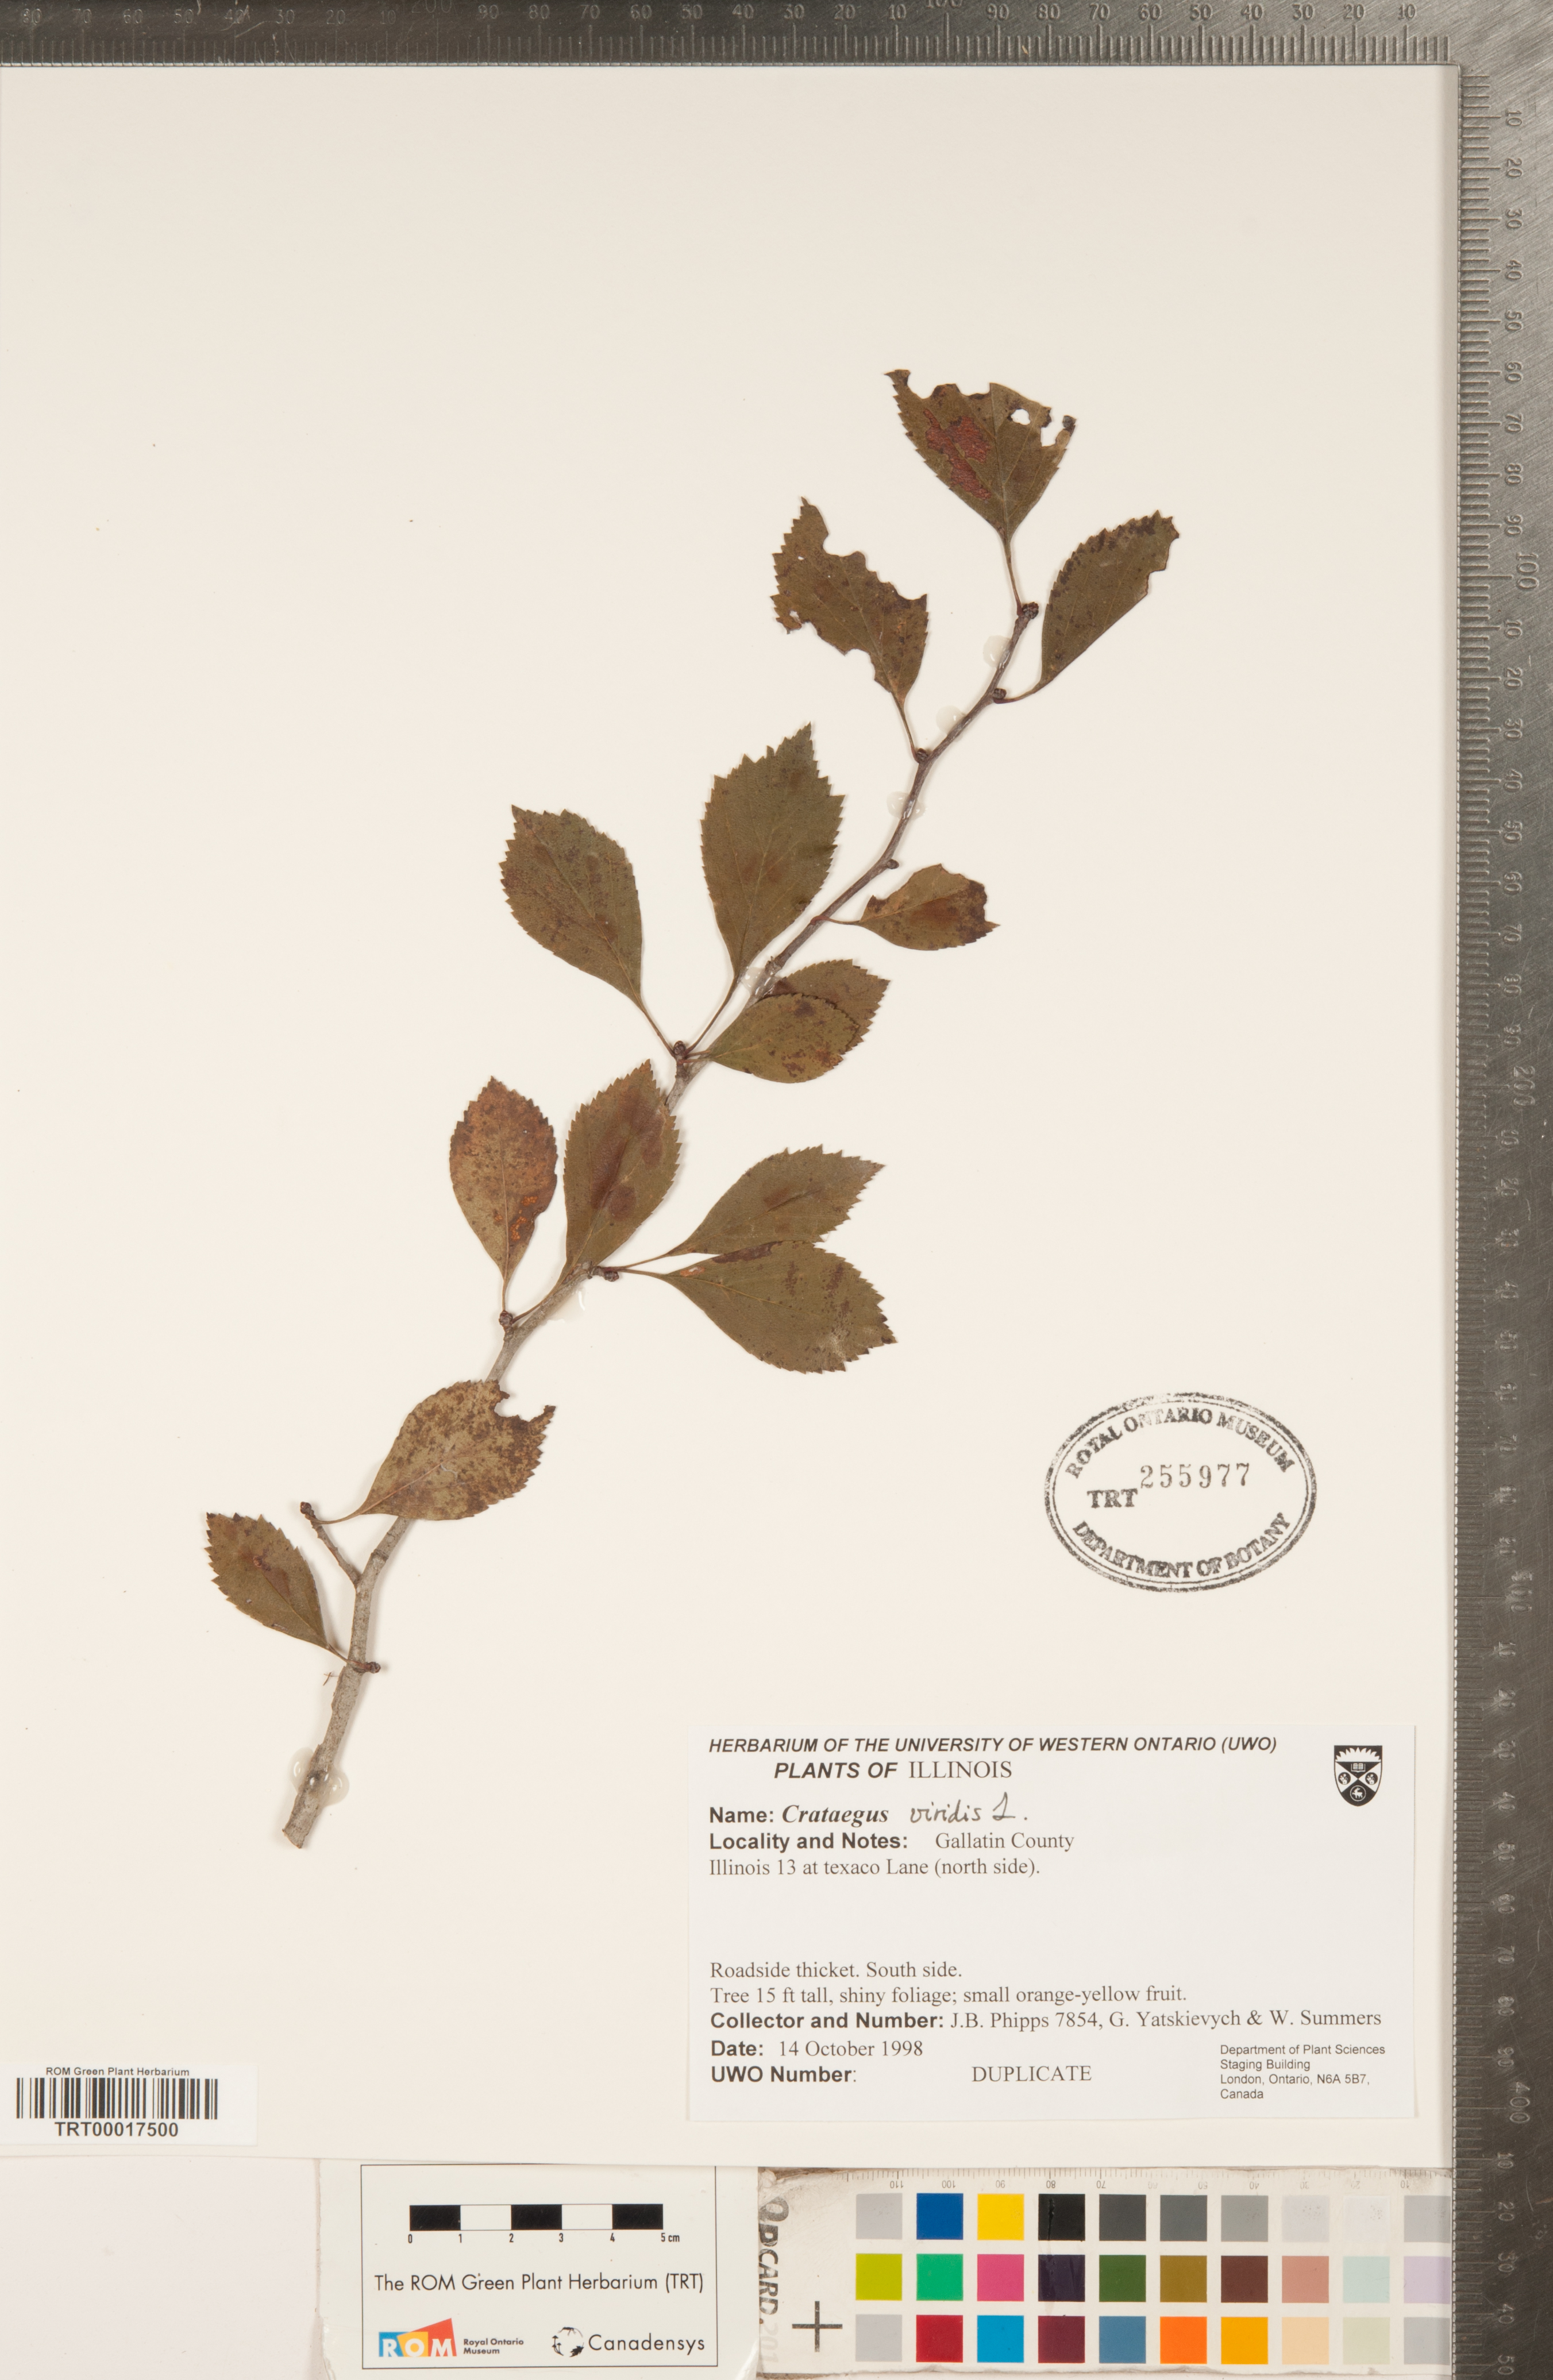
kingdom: Plantae
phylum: Tracheophyta
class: Magnoliopsida
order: Rosales
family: Rosaceae
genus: Crataegus
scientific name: Crataegus viridis
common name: Southernthorn
